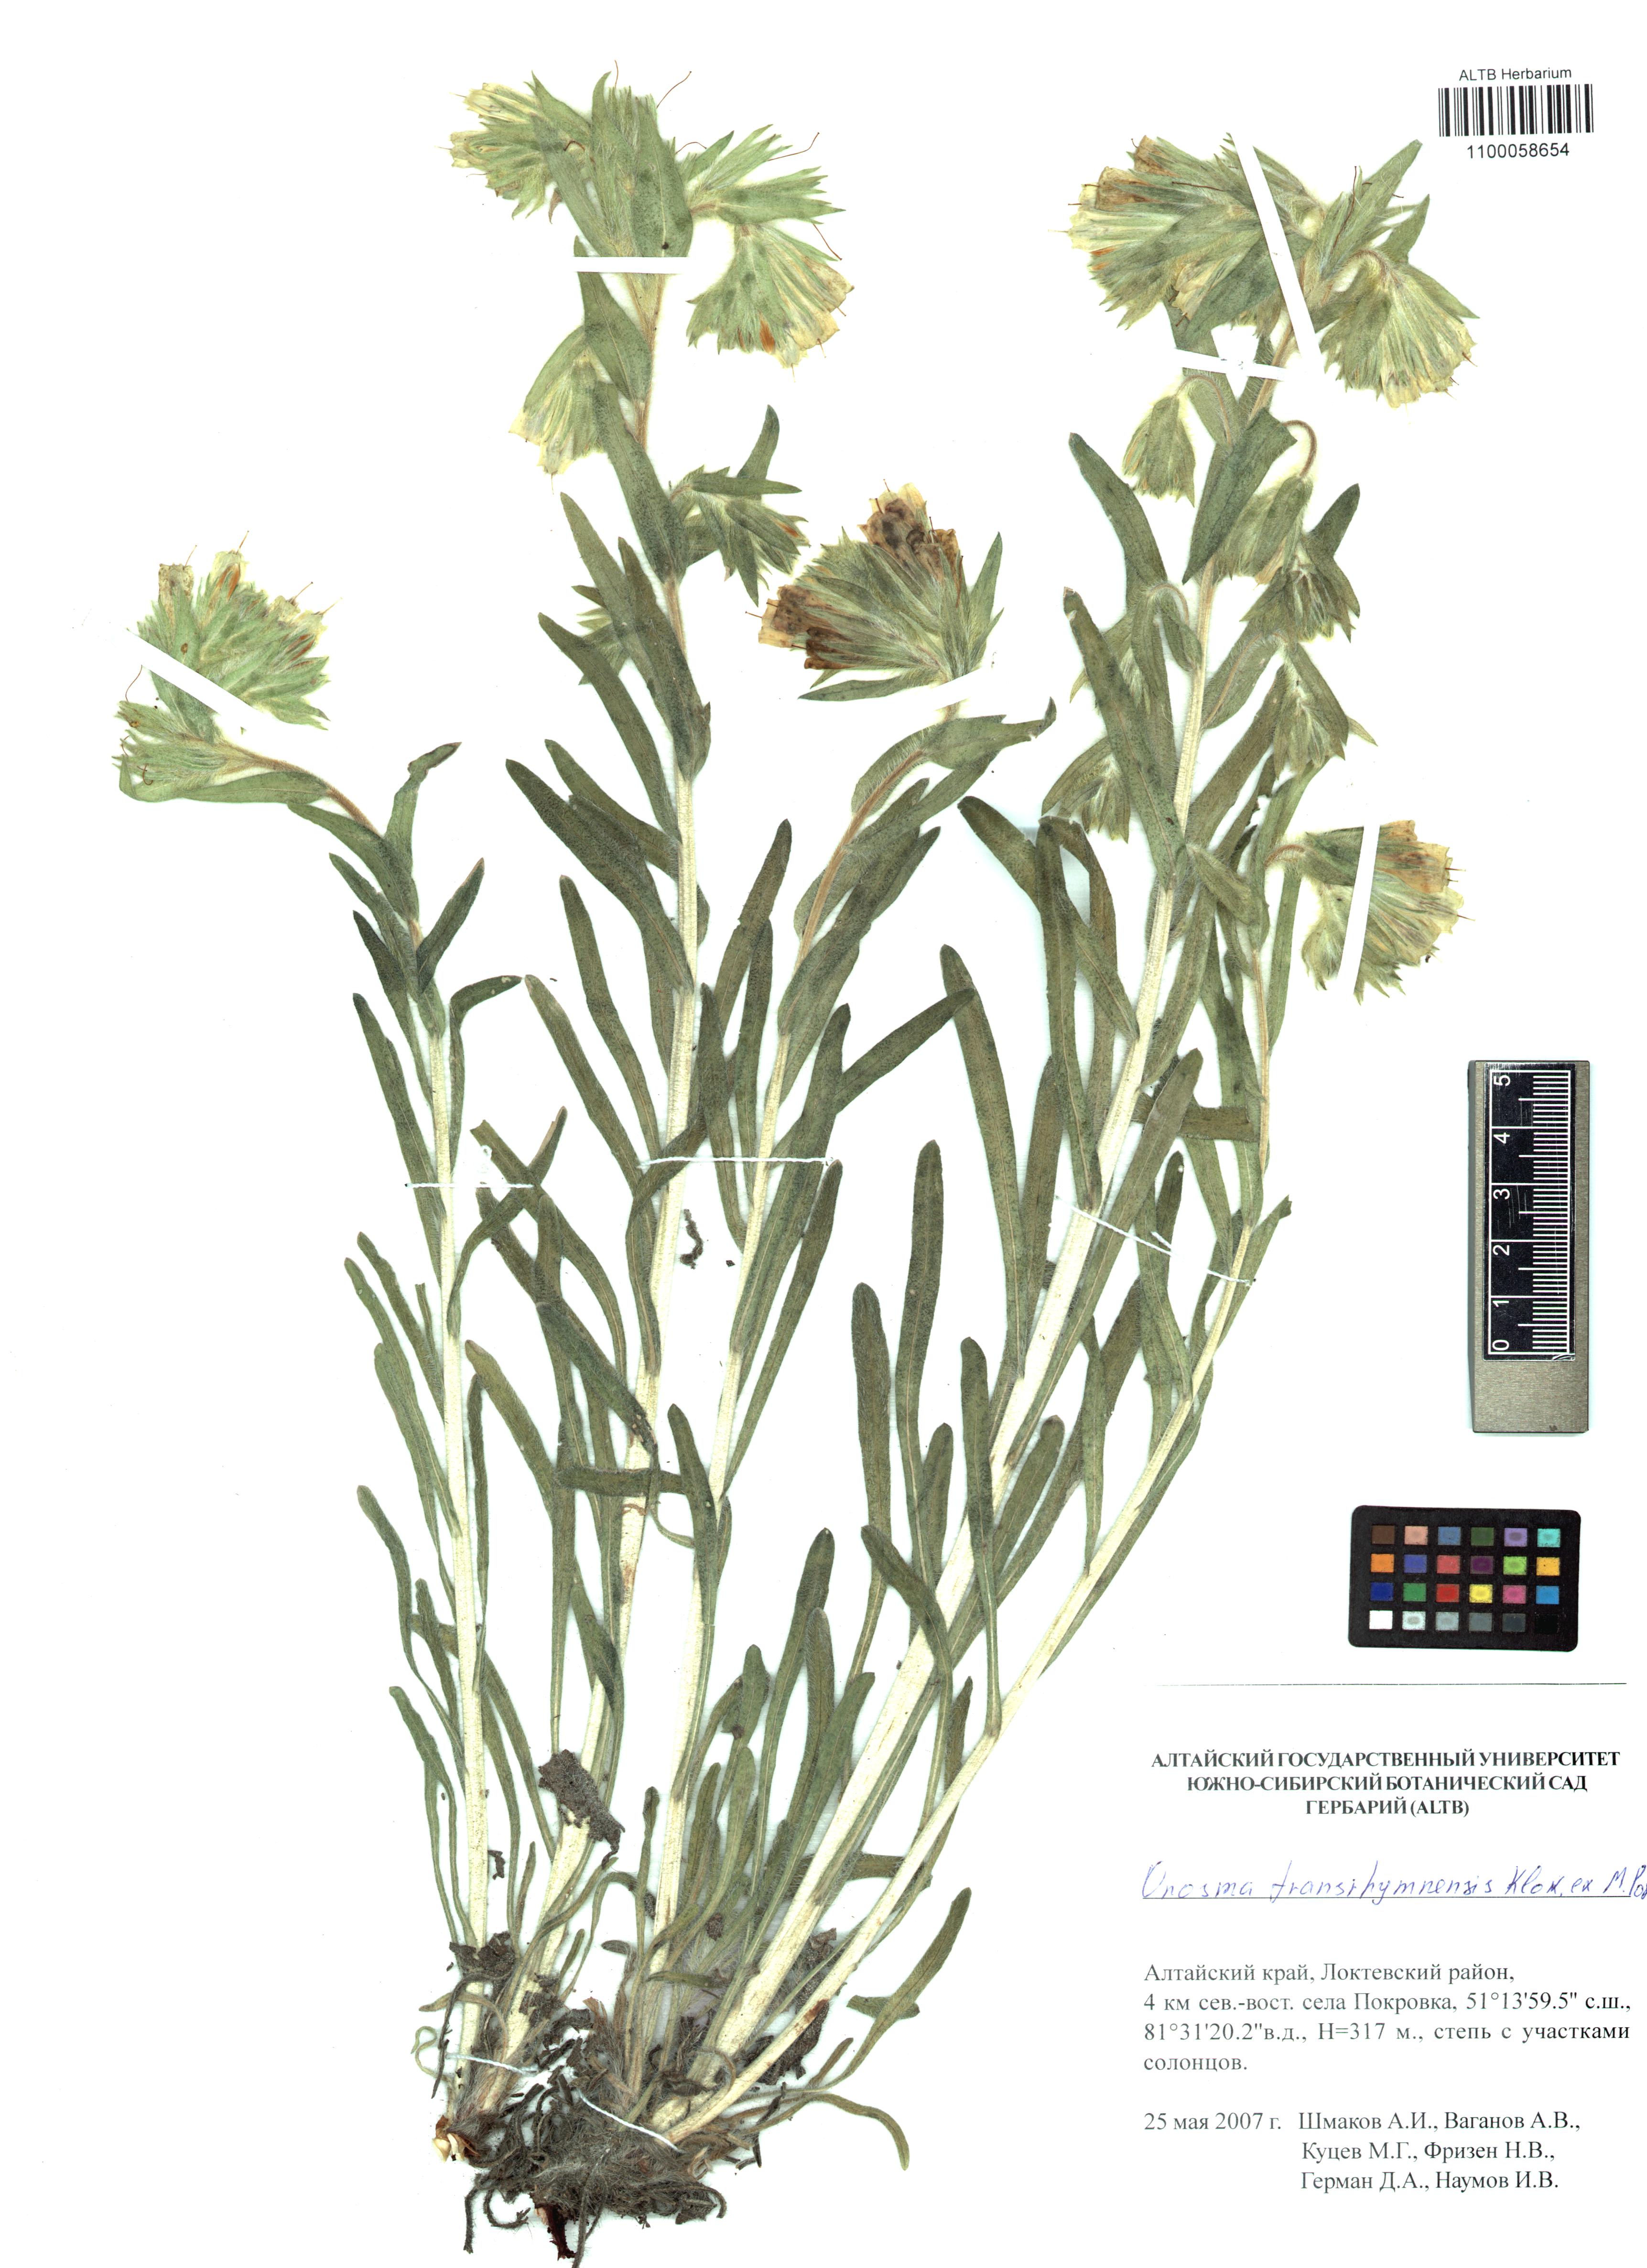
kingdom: Plantae
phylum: Tracheophyta
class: Magnoliopsida
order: Boraginales
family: Boraginaceae
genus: Onosma
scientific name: Onosma setosa
